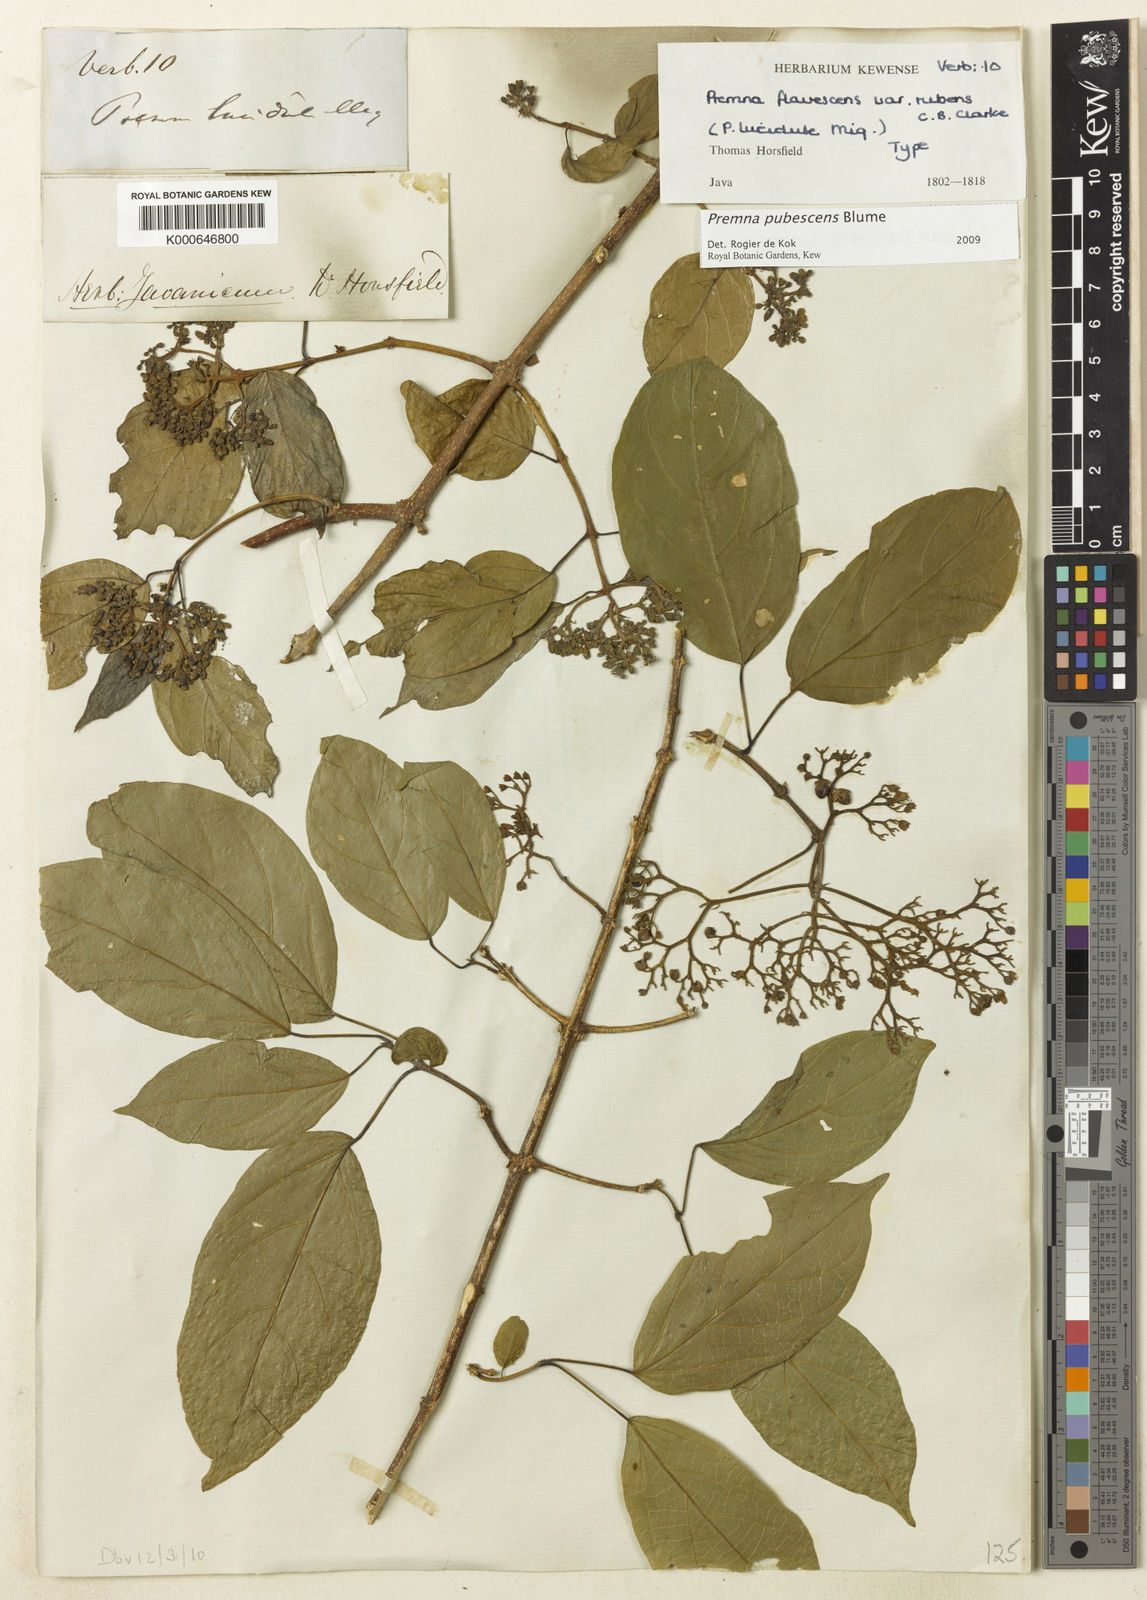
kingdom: Plantae
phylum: Tracheophyta
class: Magnoliopsida
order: Lamiales
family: Lamiaceae
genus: Premna
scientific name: Premna pubescens
